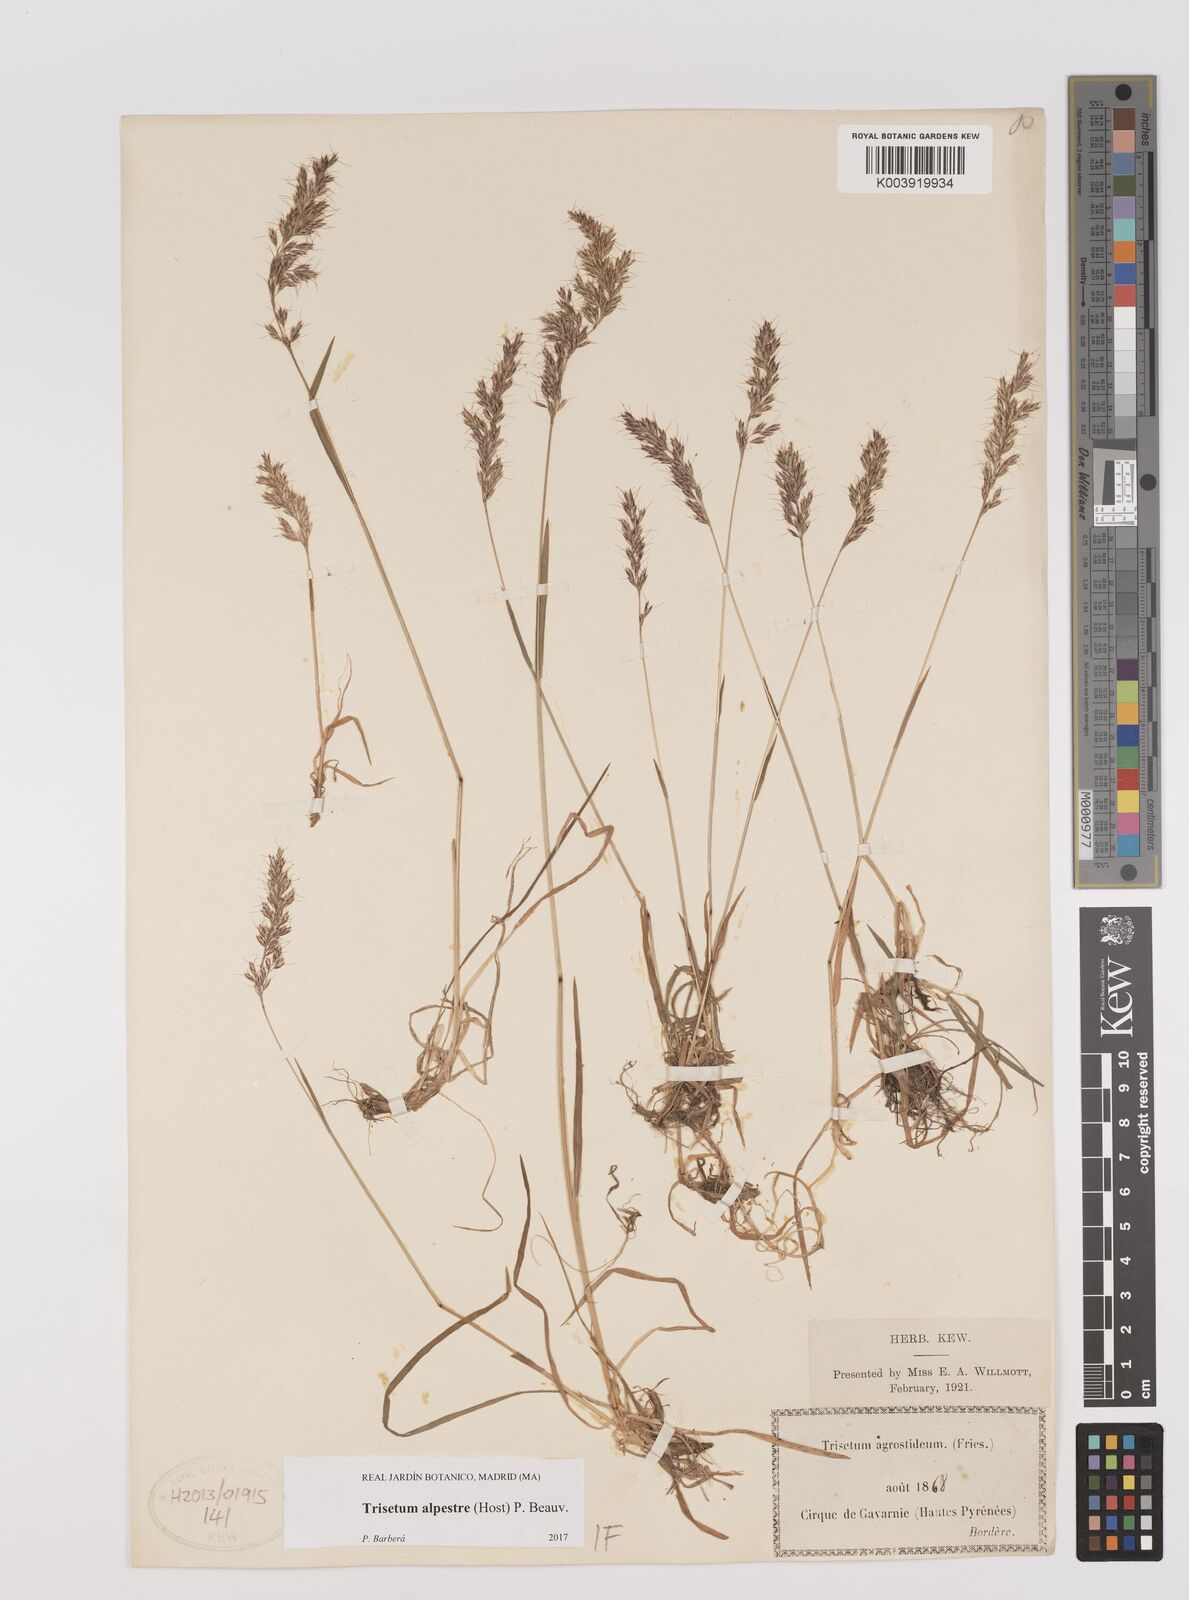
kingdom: Plantae
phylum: Tracheophyta
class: Liliopsida
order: Poales
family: Poaceae
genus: Trisetum
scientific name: Trisetum alpestre
